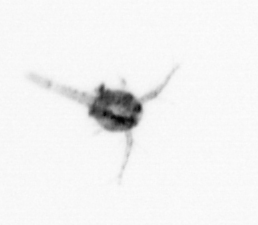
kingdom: Animalia
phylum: Arthropoda
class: Copepoda
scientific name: Copepoda
